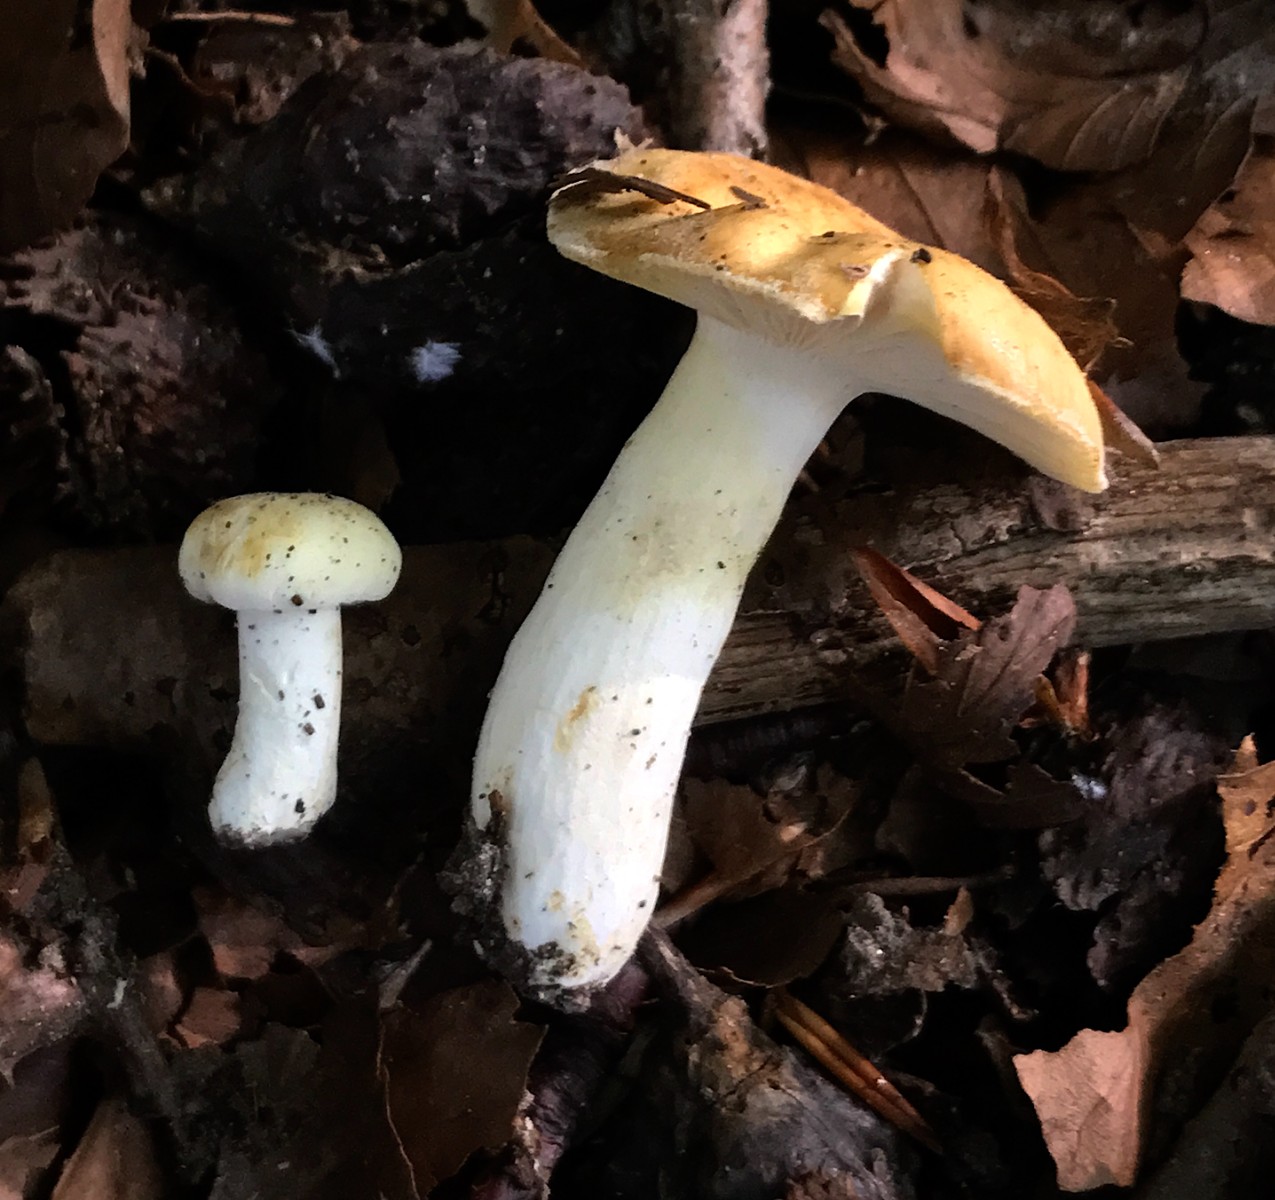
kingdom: Fungi
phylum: Basidiomycota
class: Agaricomycetes
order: Russulales
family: Russulaceae
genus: Russula
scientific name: Russula ochroleuca
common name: okkergul skørhat
